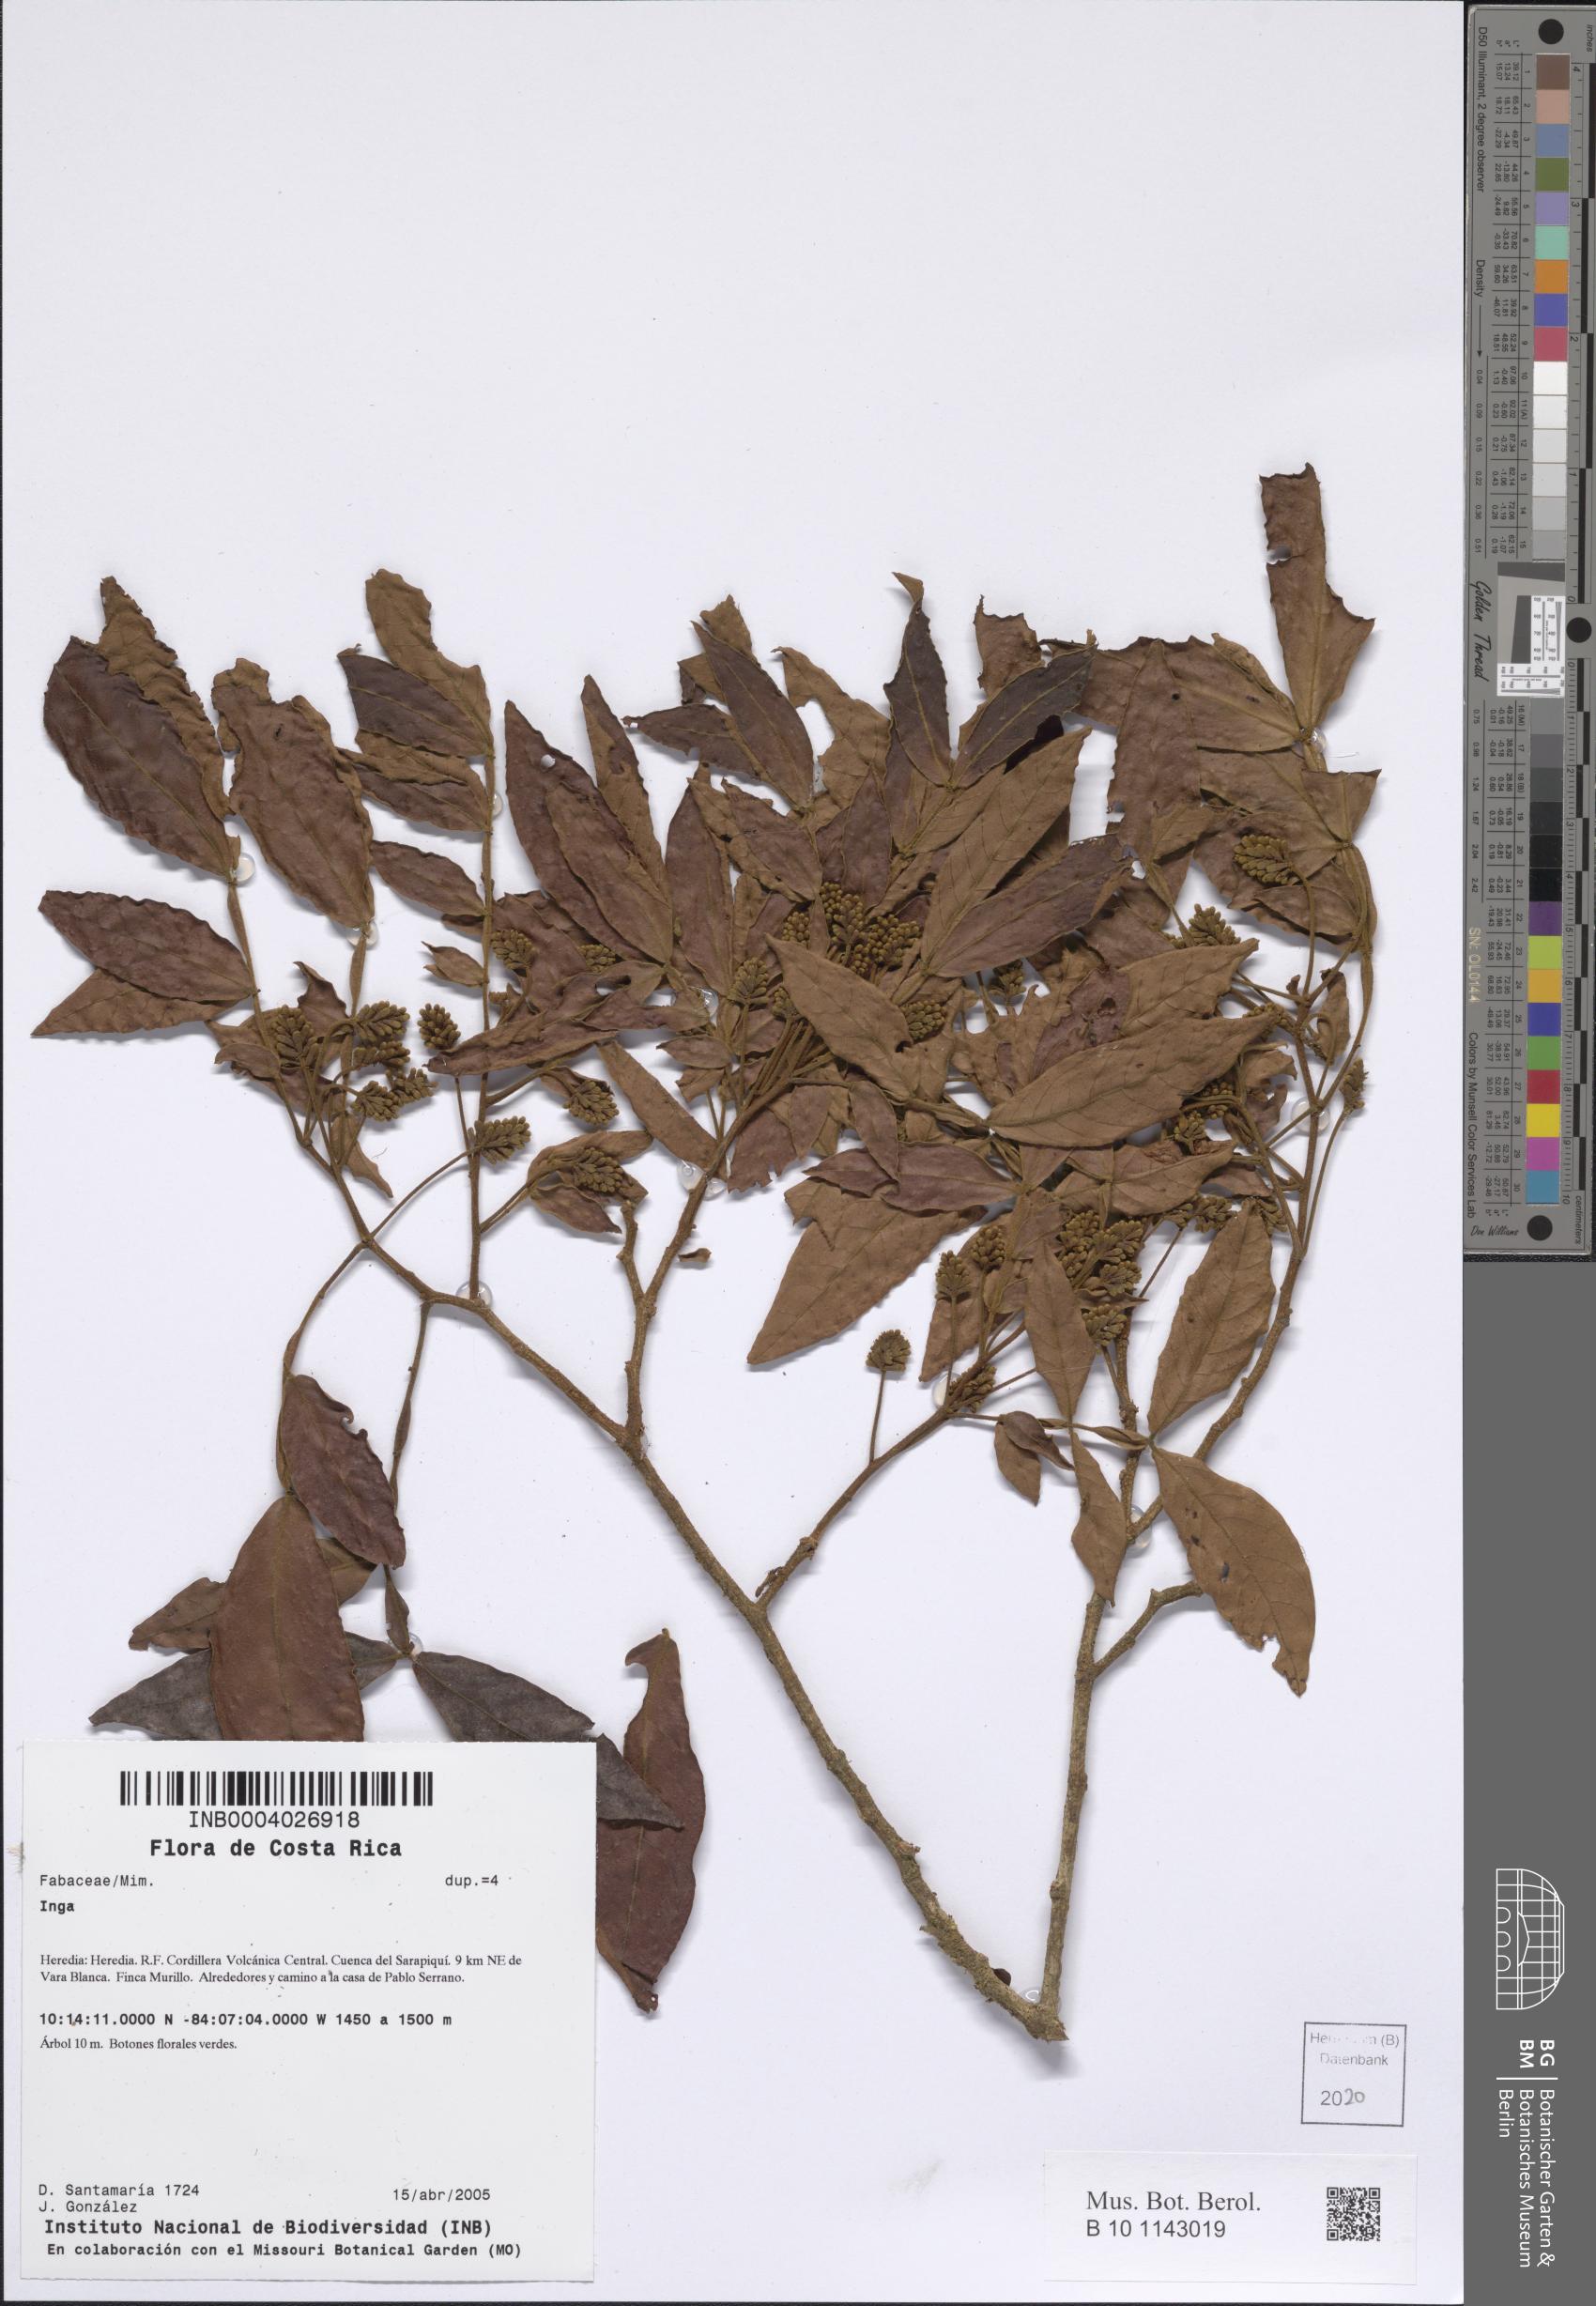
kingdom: Plantae
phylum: Tracheophyta
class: Magnoliopsida
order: Fabales
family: Fabaceae
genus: Inga
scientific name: Inga
